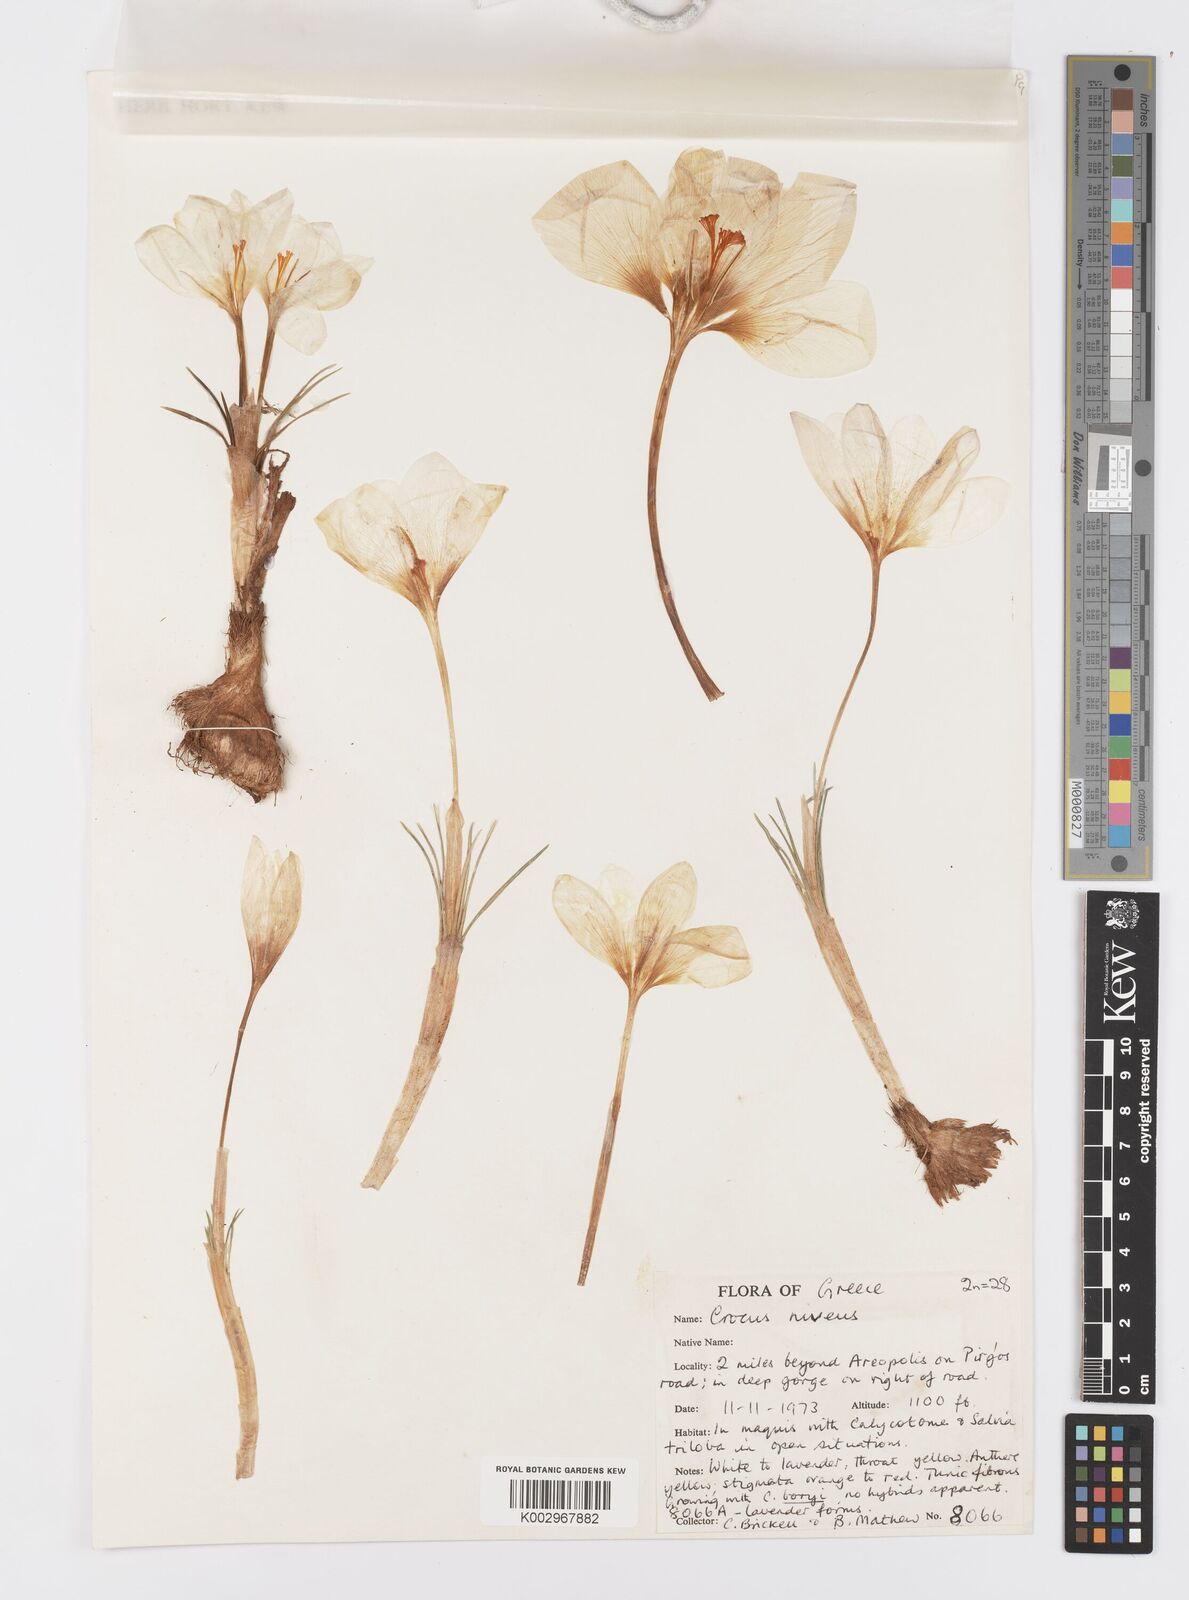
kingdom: Plantae
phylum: Tracheophyta
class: Liliopsida
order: Asparagales
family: Iridaceae
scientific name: Iridaceae
